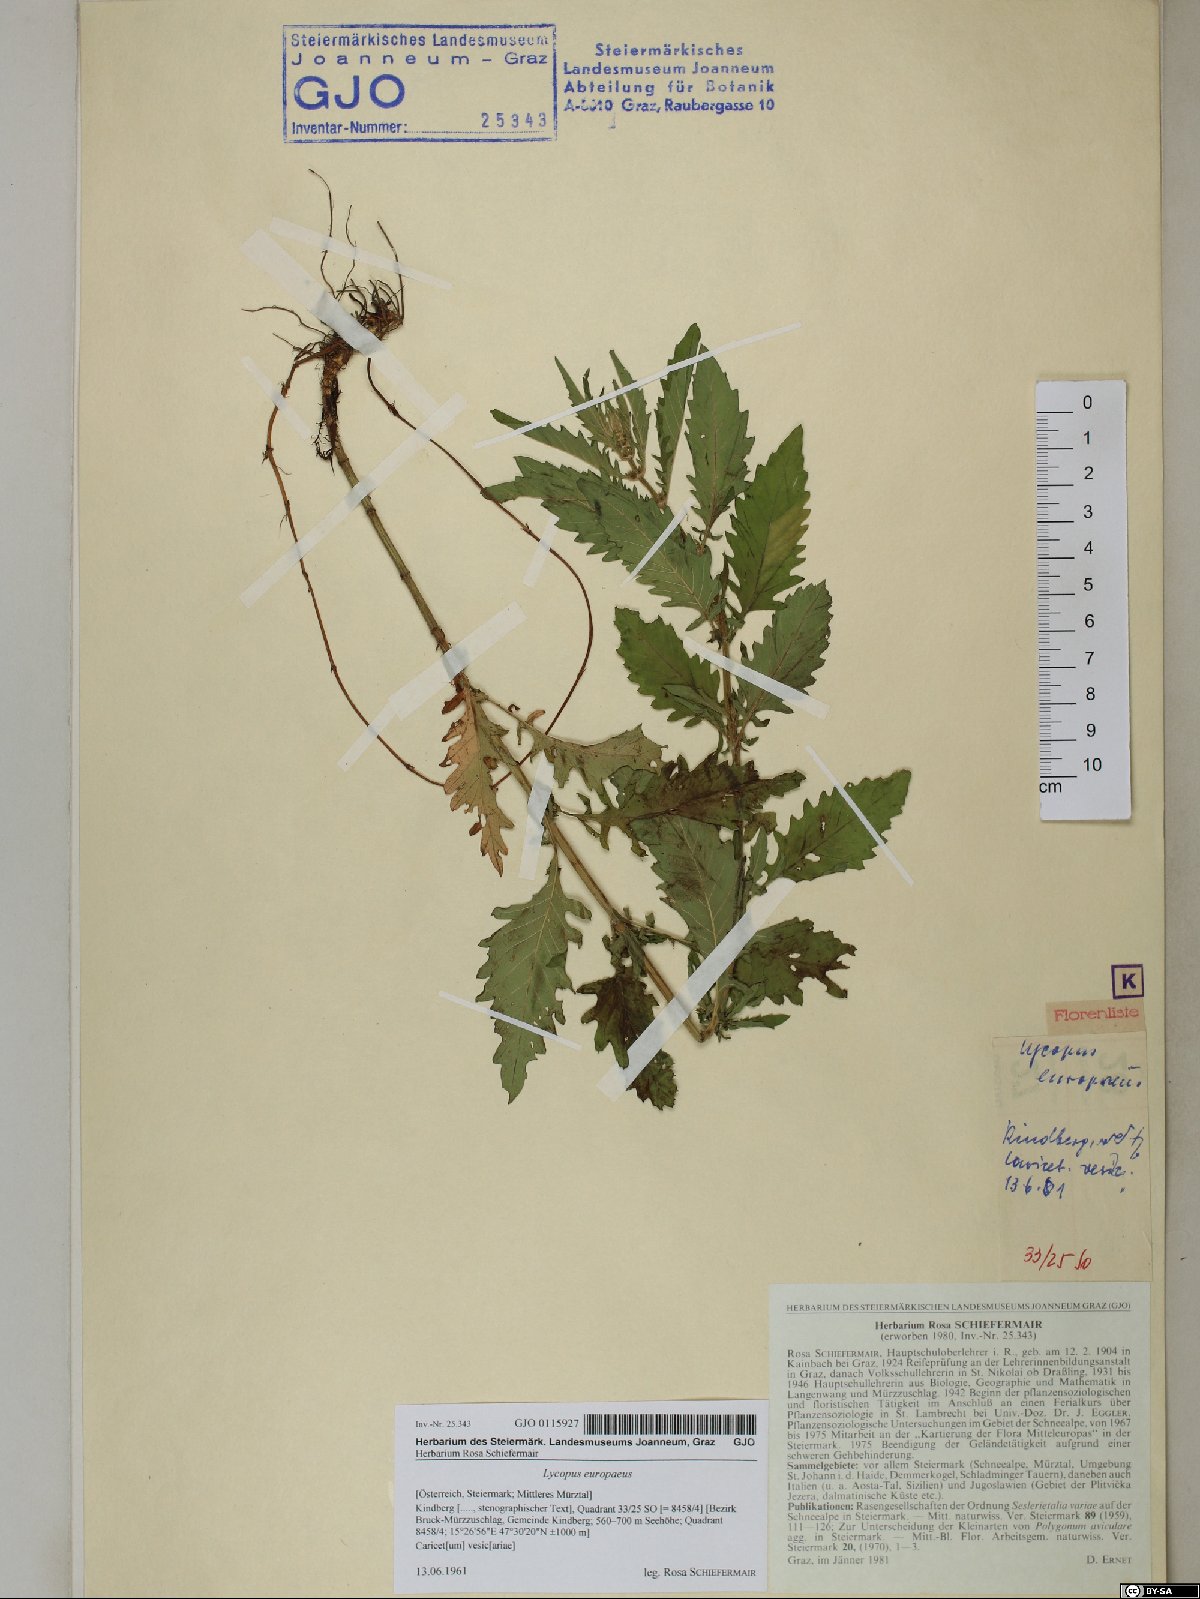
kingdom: Plantae
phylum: Tracheophyta
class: Magnoliopsida
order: Lamiales
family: Lamiaceae
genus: Lycopus
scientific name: Lycopus europaeus
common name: European bugleweed
